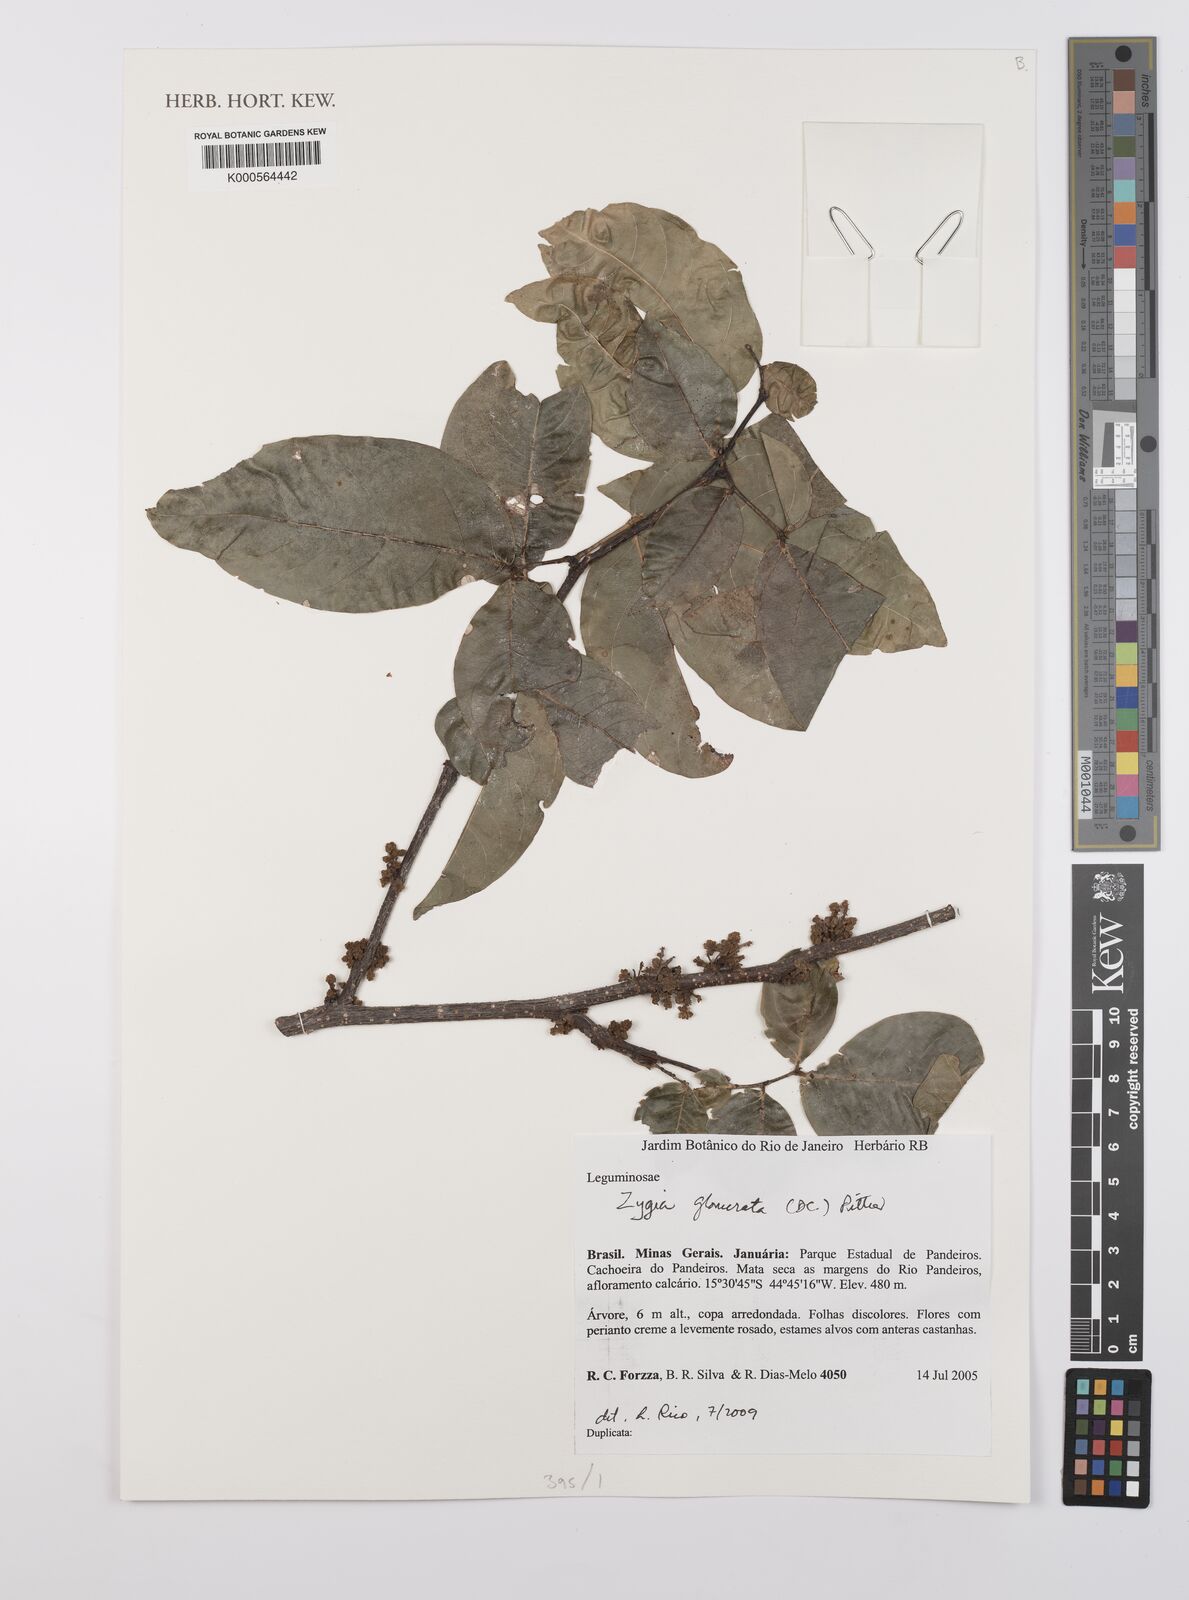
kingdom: Plantae
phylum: Tracheophyta
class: Magnoliopsida
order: Fabales
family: Fabaceae
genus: Zygia
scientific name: Zygia cataractae
